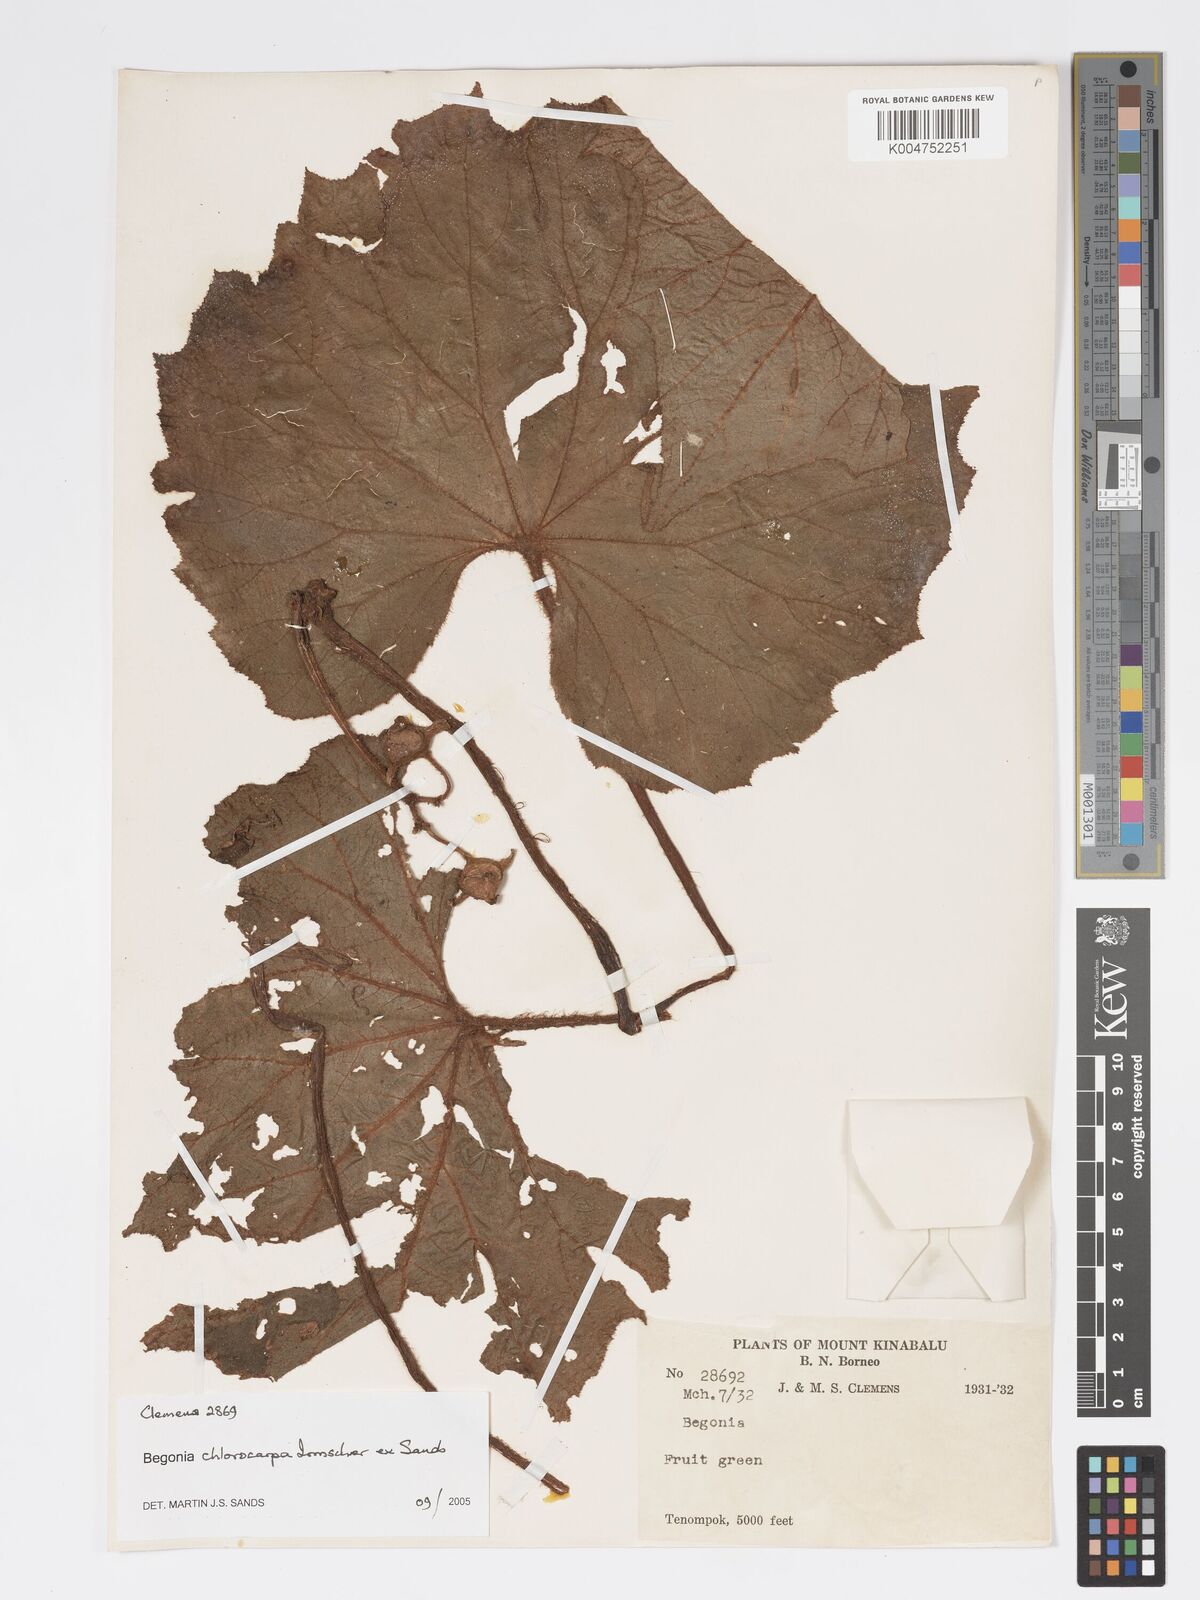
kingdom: Plantae
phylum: Tracheophyta
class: Magnoliopsida
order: Cucurbitales
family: Begoniaceae
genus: Begonia
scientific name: Begonia chlorocarpa
